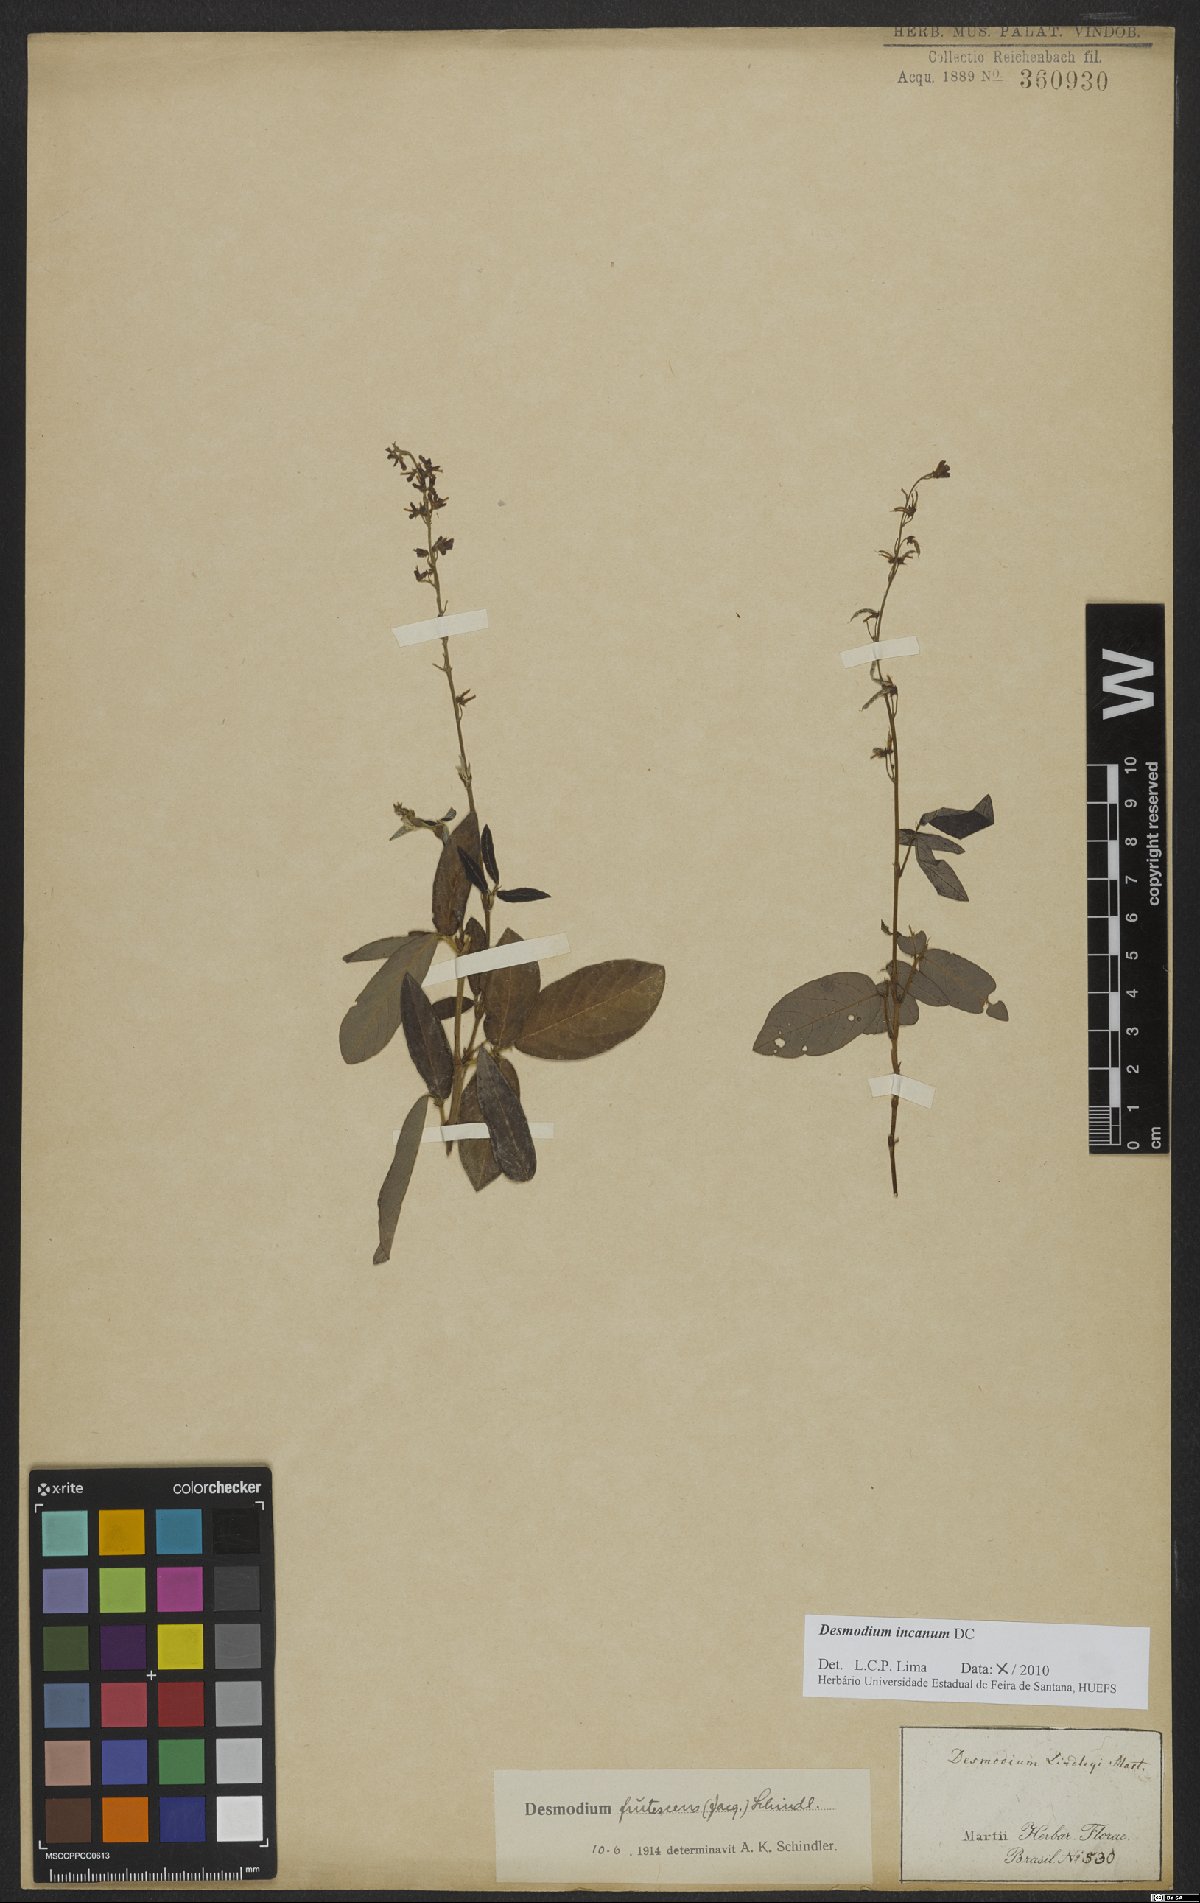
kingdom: Plantae
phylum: Tracheophyta
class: Magnoliopsida
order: Fabales
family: Fabaceae
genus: Desmodium
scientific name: Desmodium incanum
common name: Tickclover
